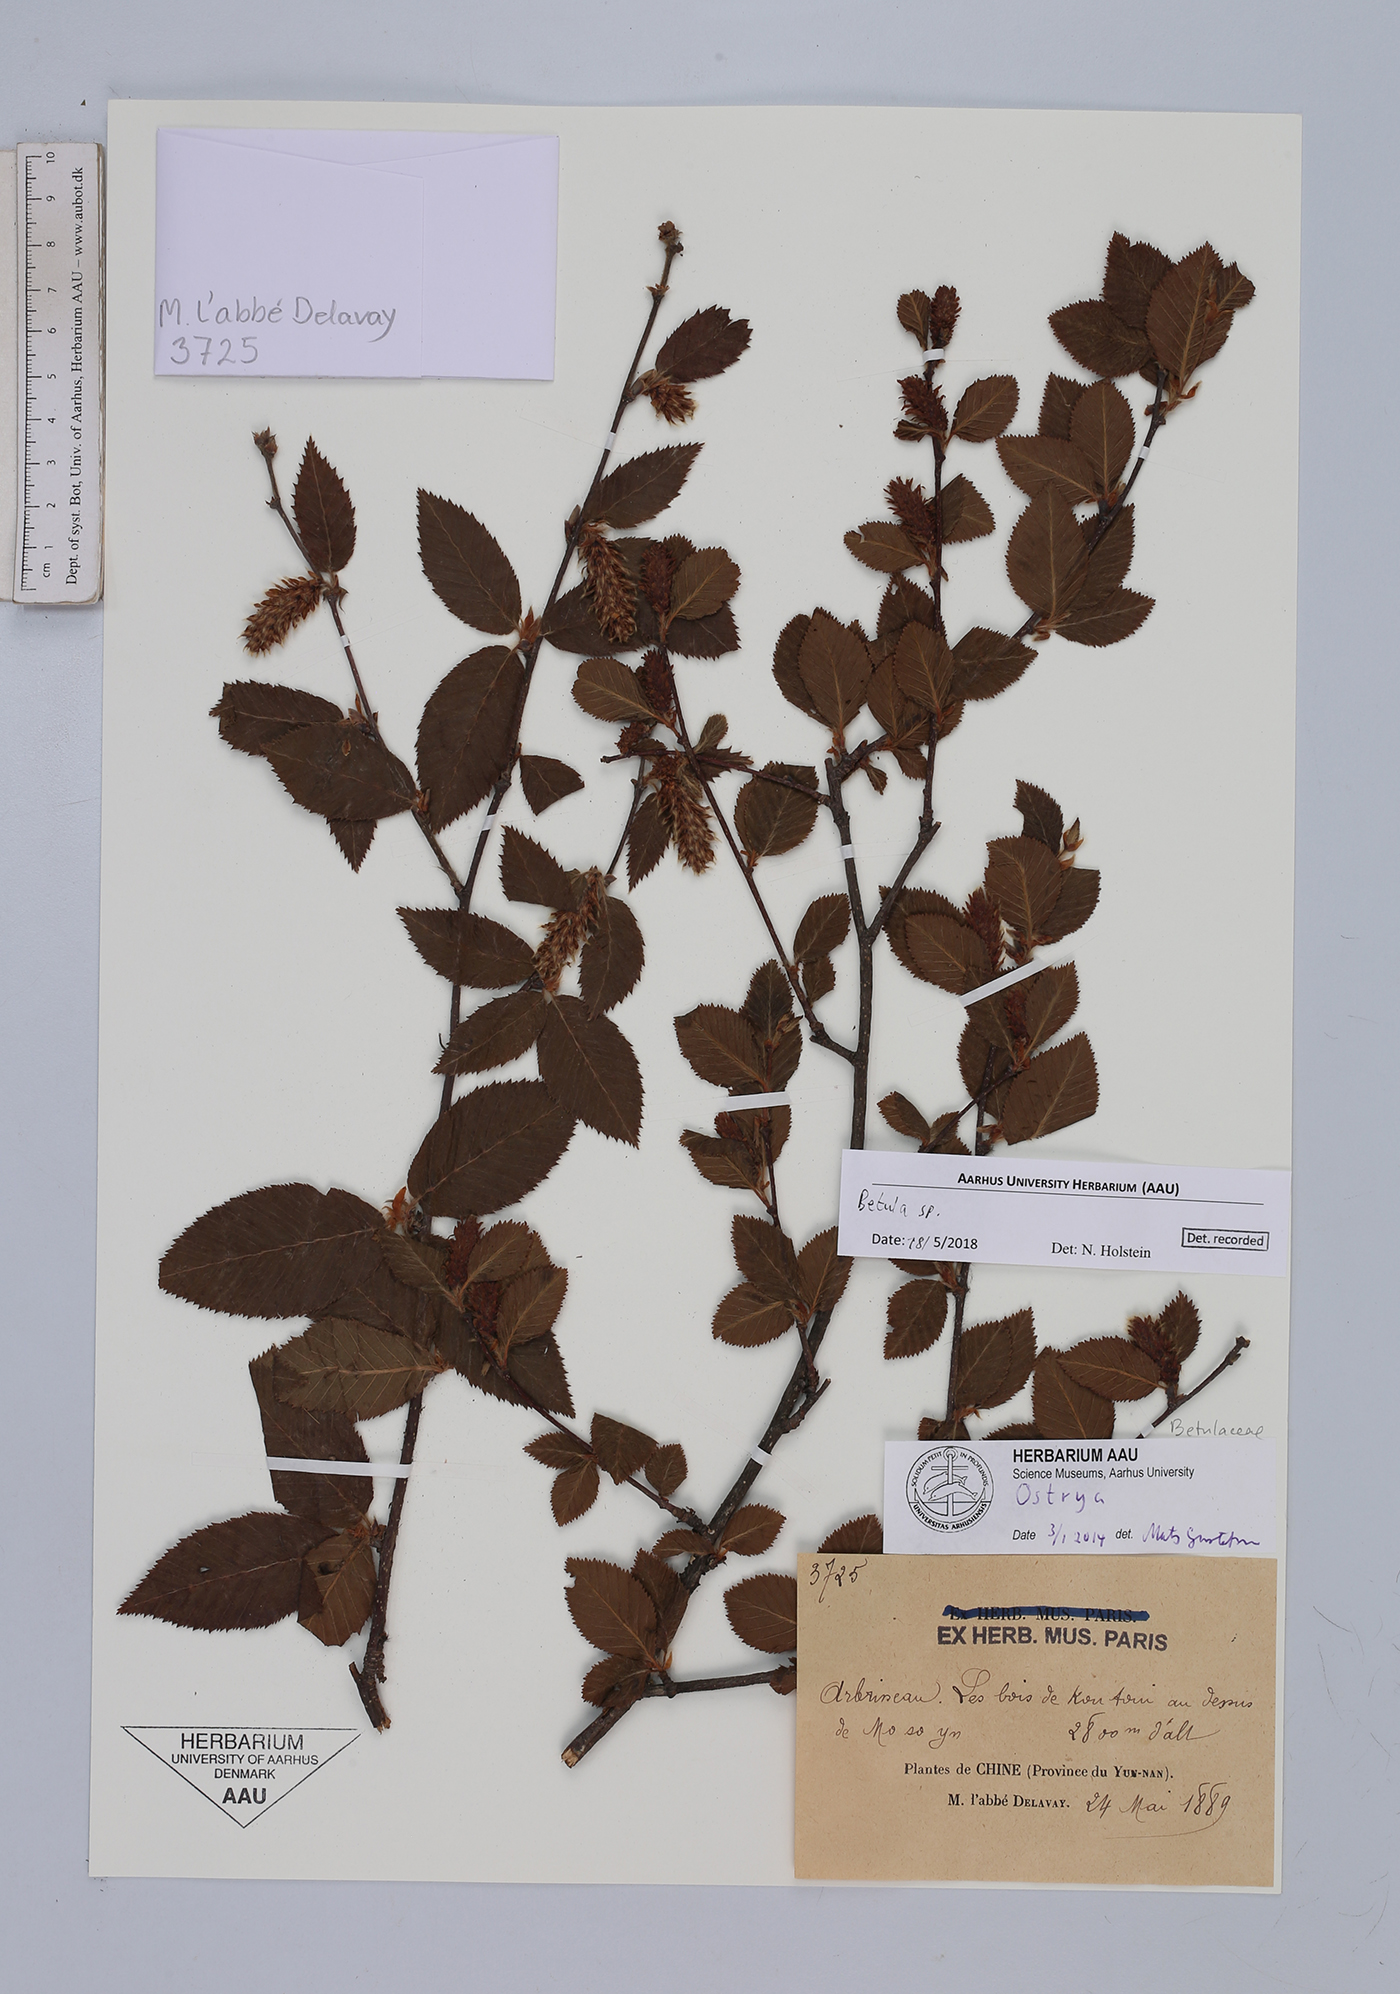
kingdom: Plantae
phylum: Tracheophyta
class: Magnoliopsida
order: Fagales
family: Betulaceae
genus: Betula
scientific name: Betula
